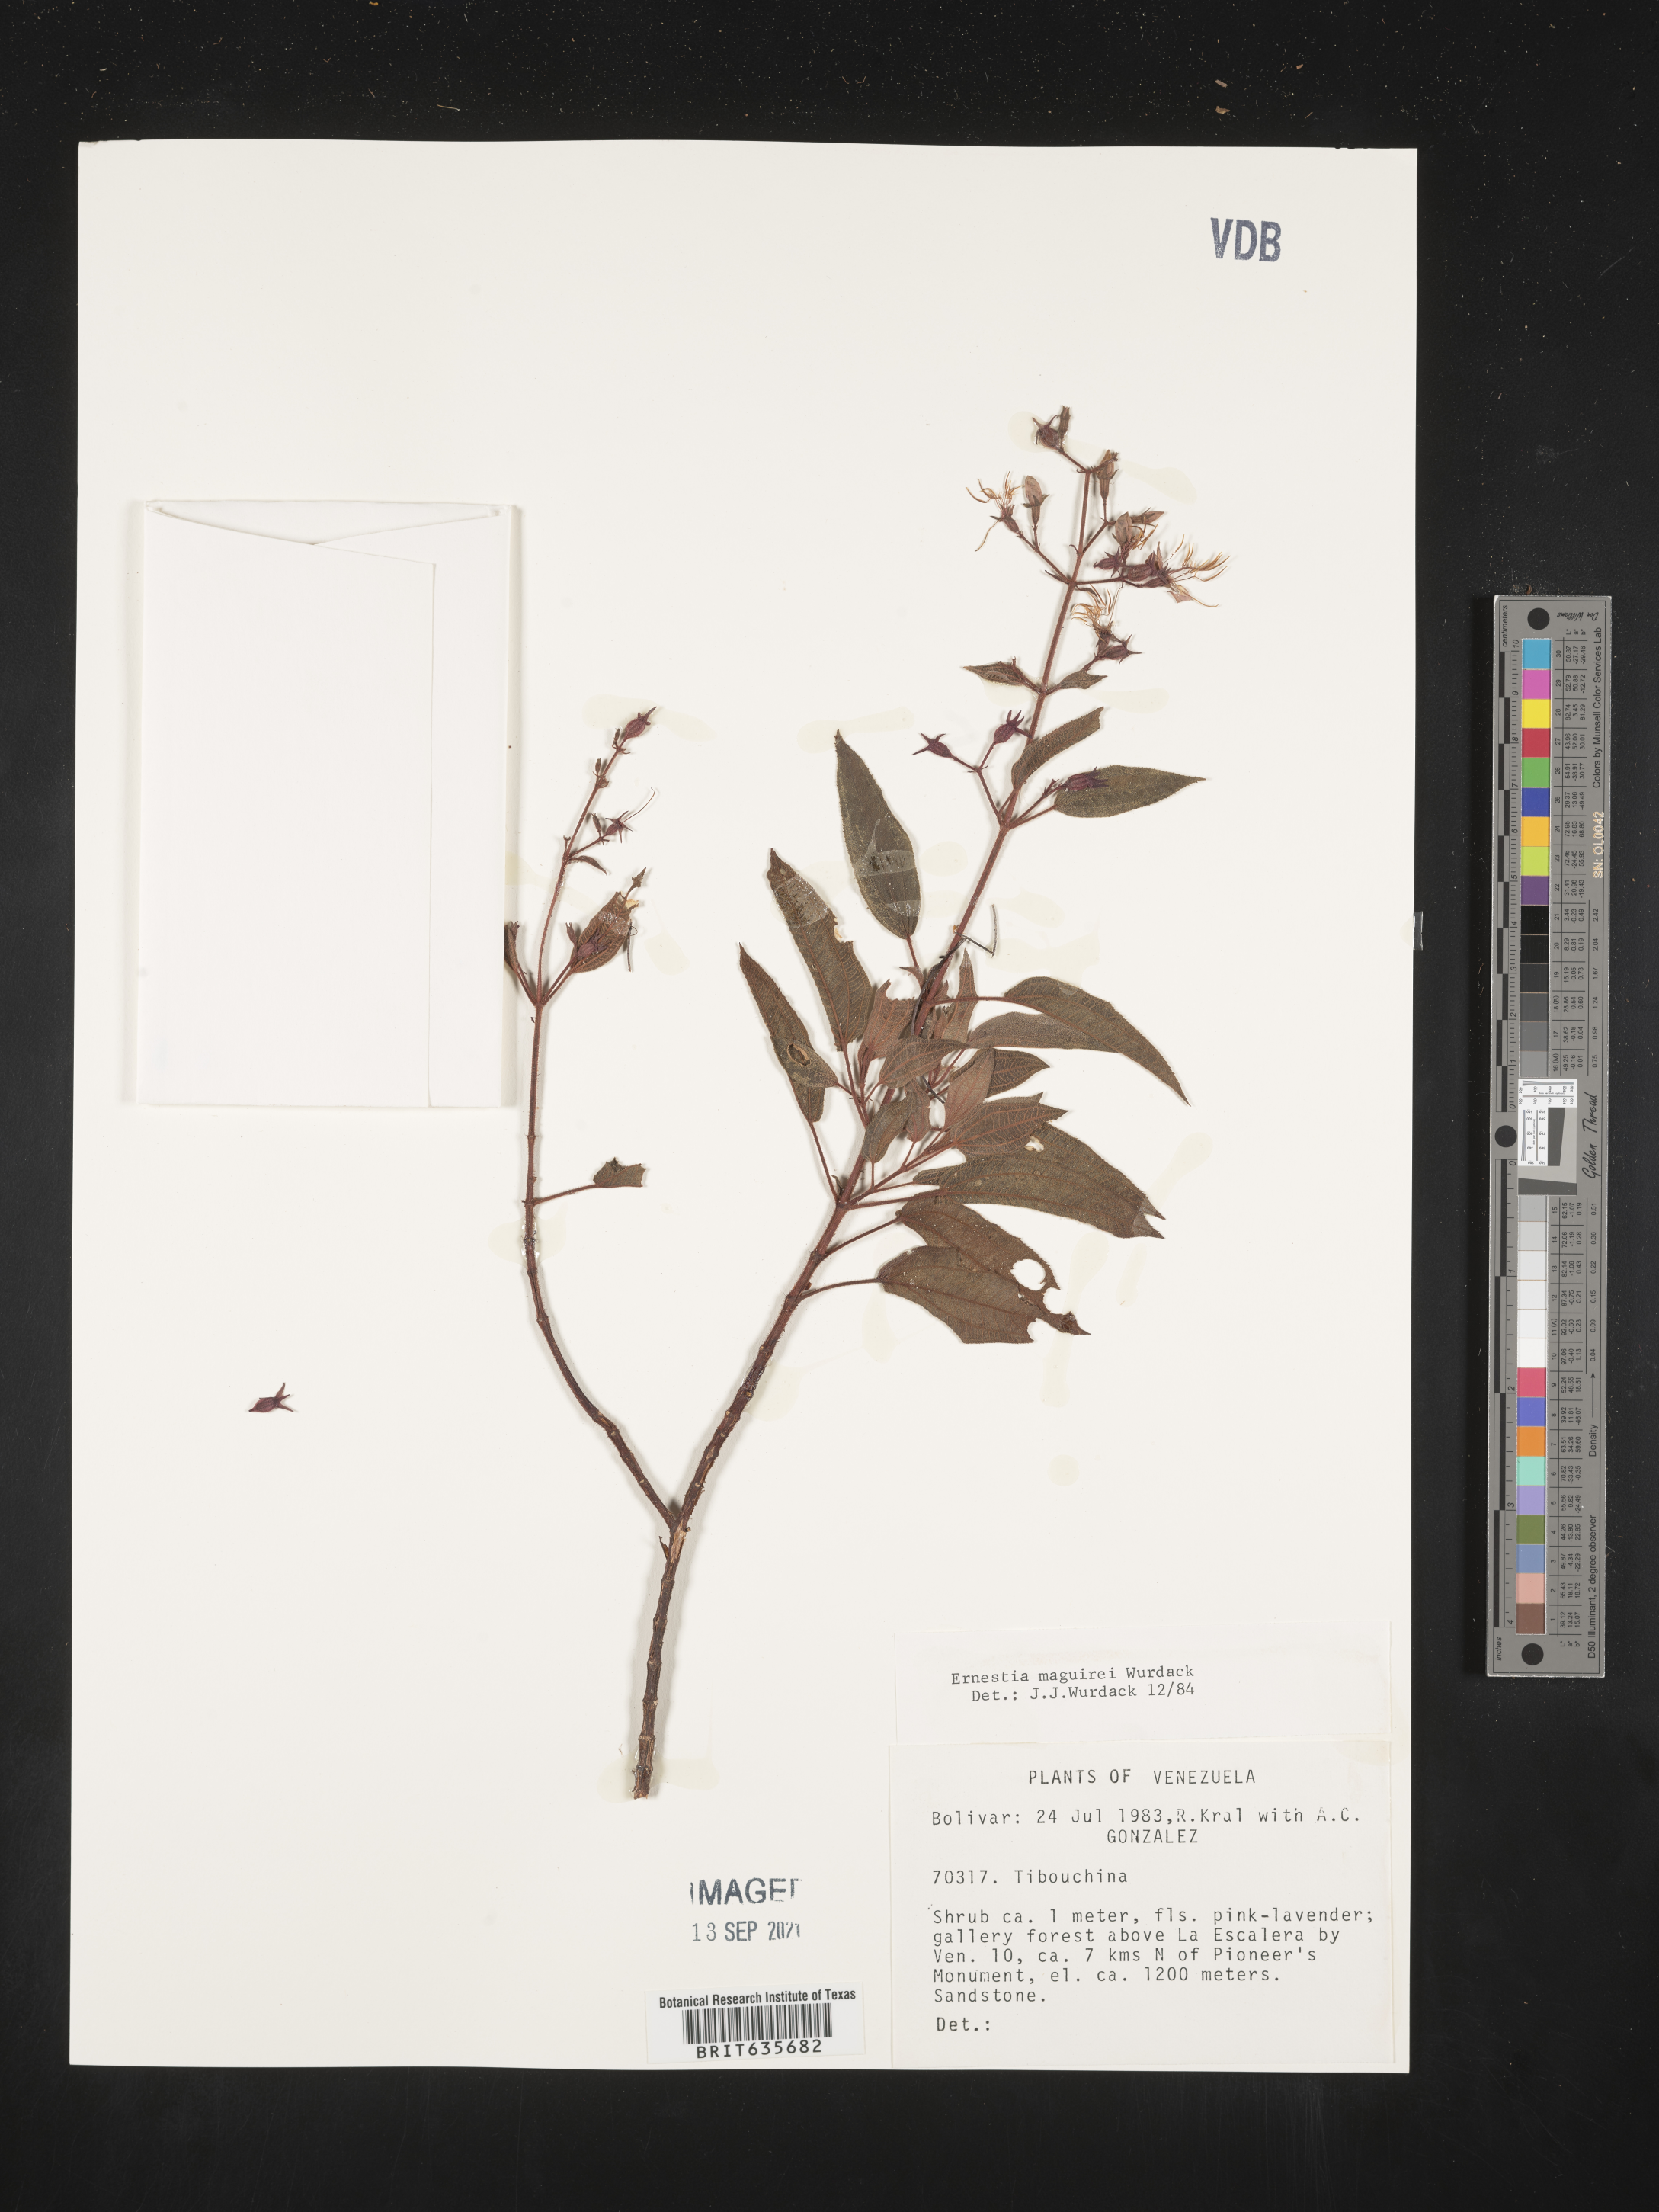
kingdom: Plantae
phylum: Tracheophyta
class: Magnoliopsida
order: Myrtales
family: Melastomataceae
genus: Ernestia
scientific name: Ernestia
